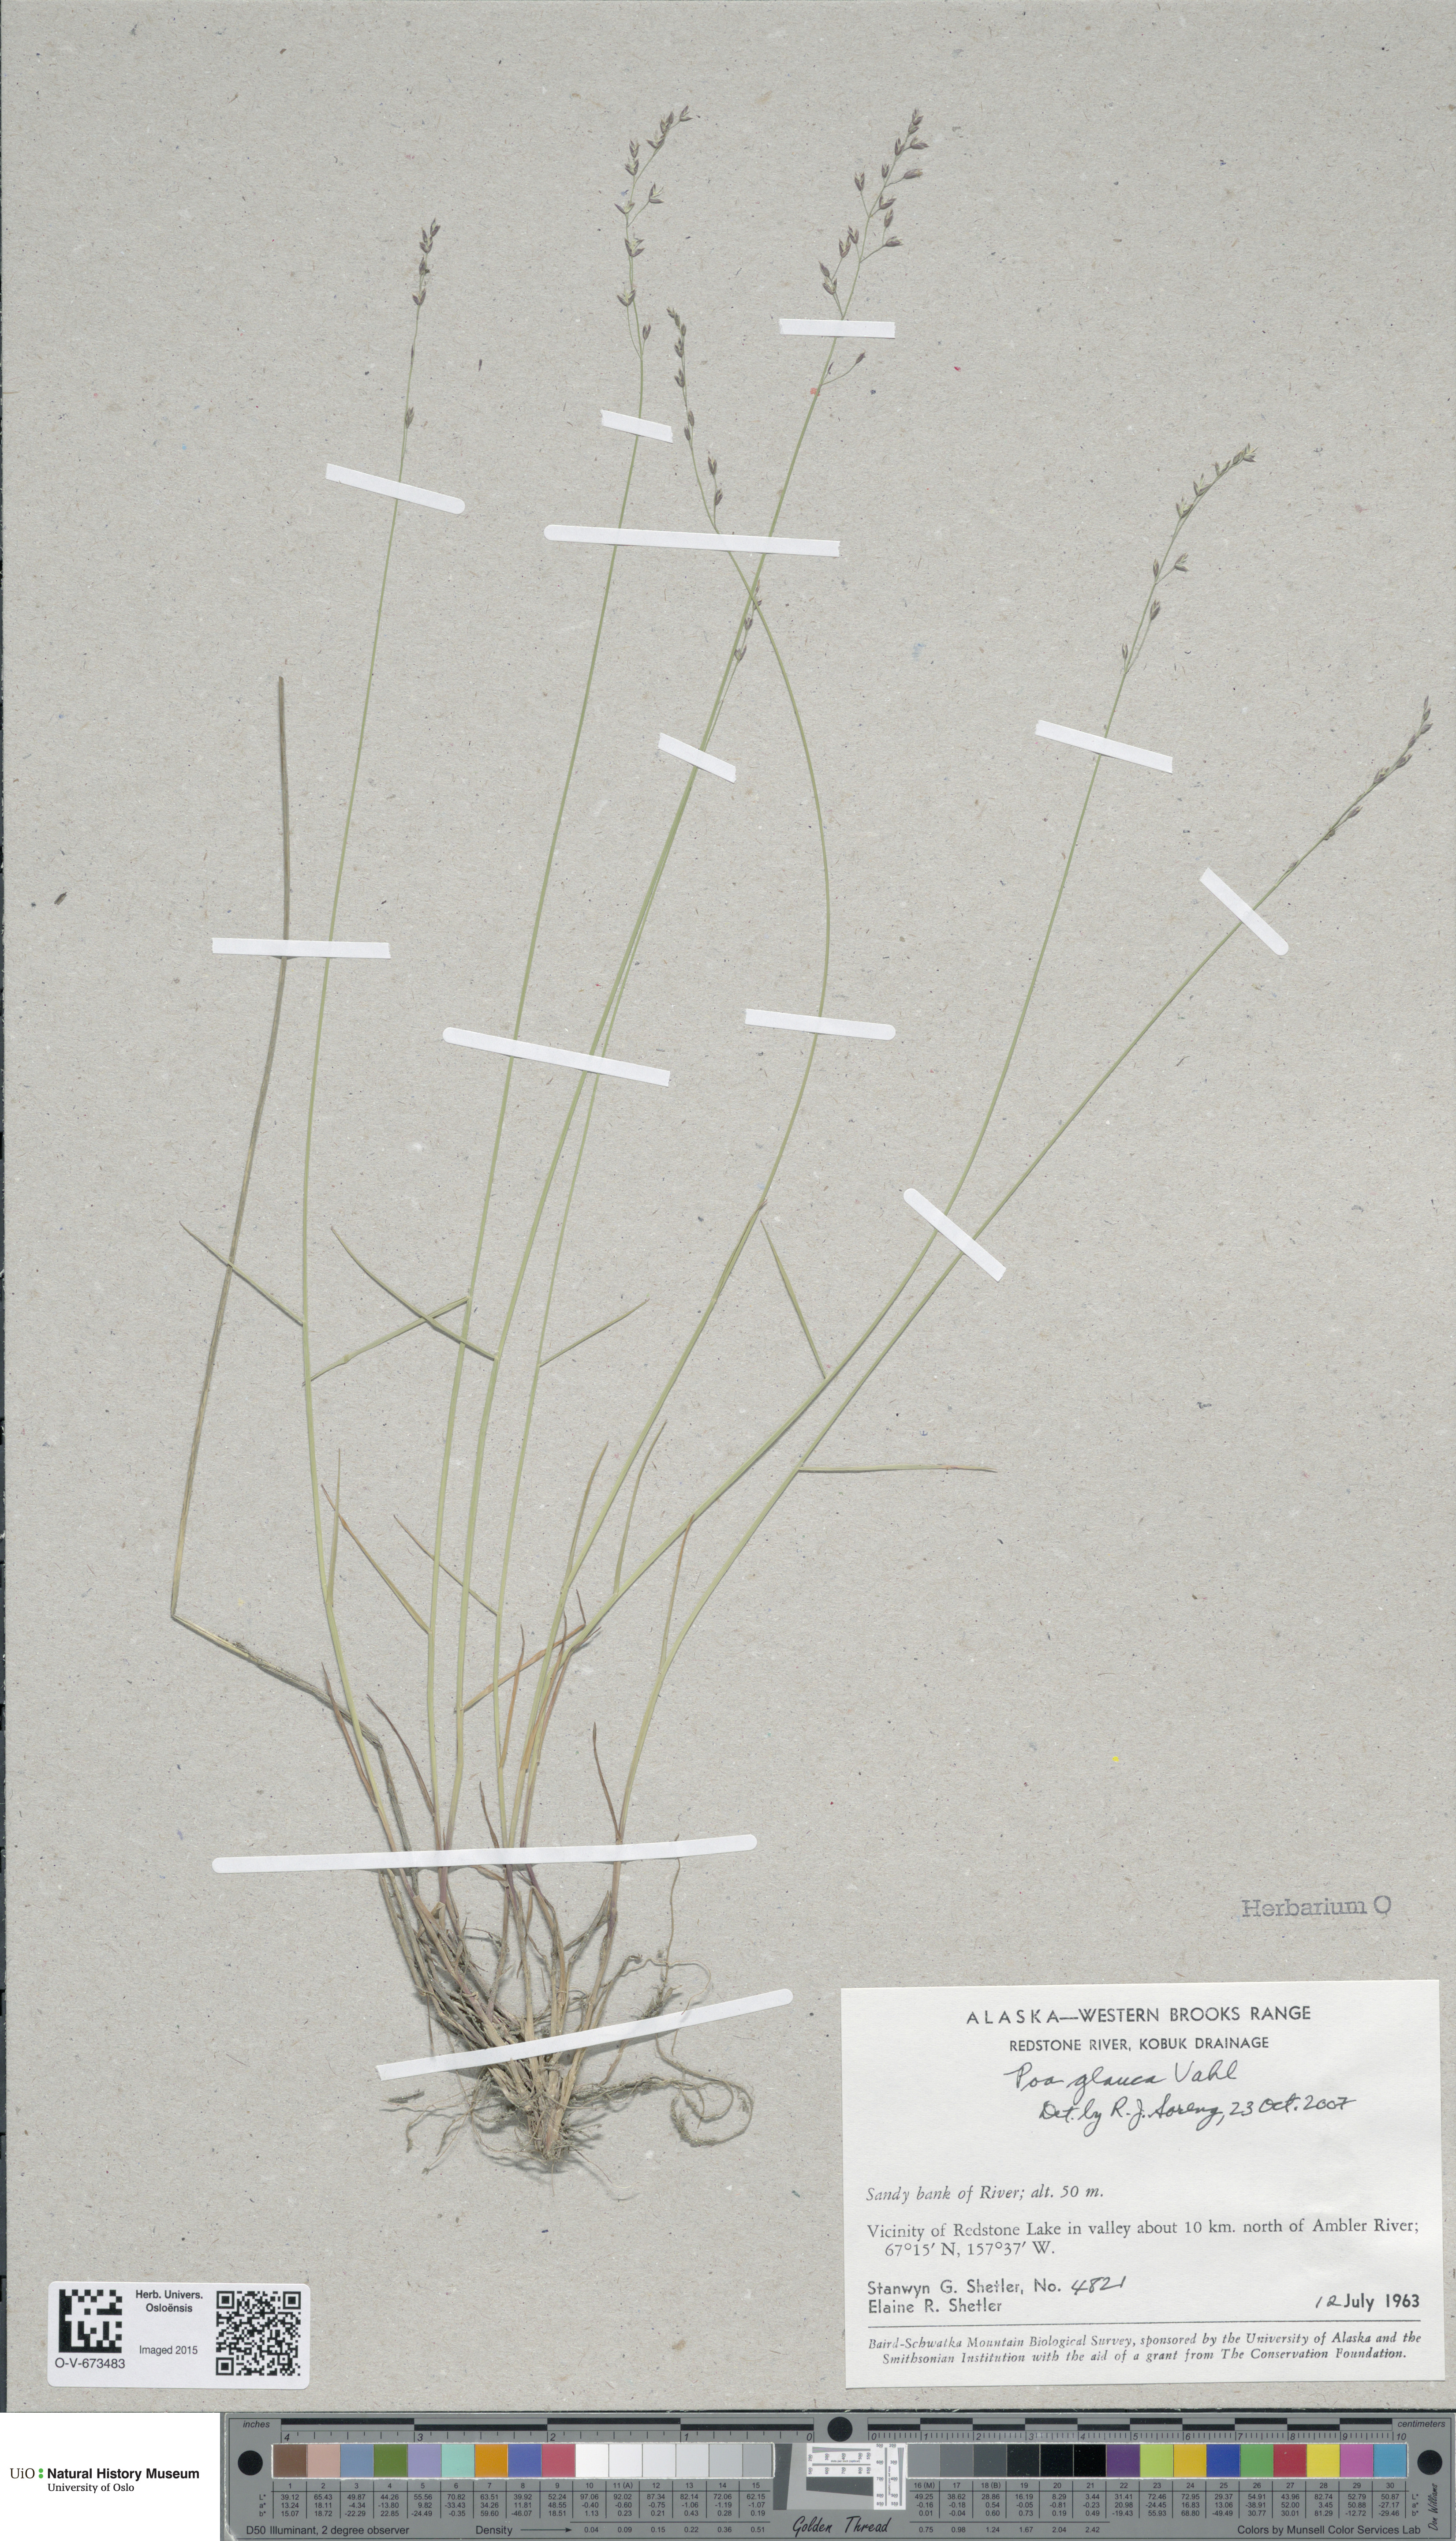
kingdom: Plantae
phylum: Tracheophyta
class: Liliopsida
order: Poales
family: Poaceae
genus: Poa
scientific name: Poa glauca
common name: Glaucous bluegrass
